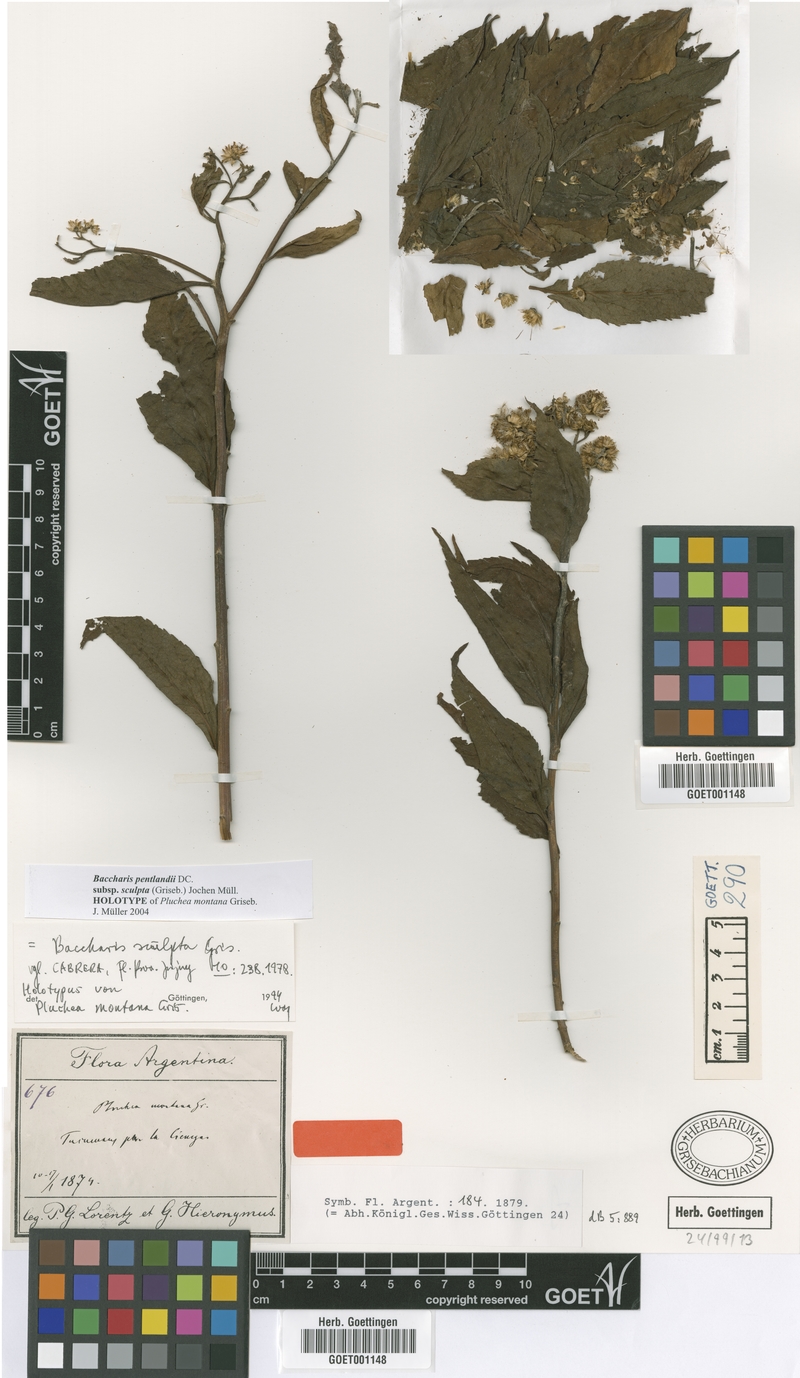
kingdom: Plantae
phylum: Tracheophyta
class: Magnoliopsida
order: Asterales
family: Asteraceae
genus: Baccharis
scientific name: Baccharis pentlandii
